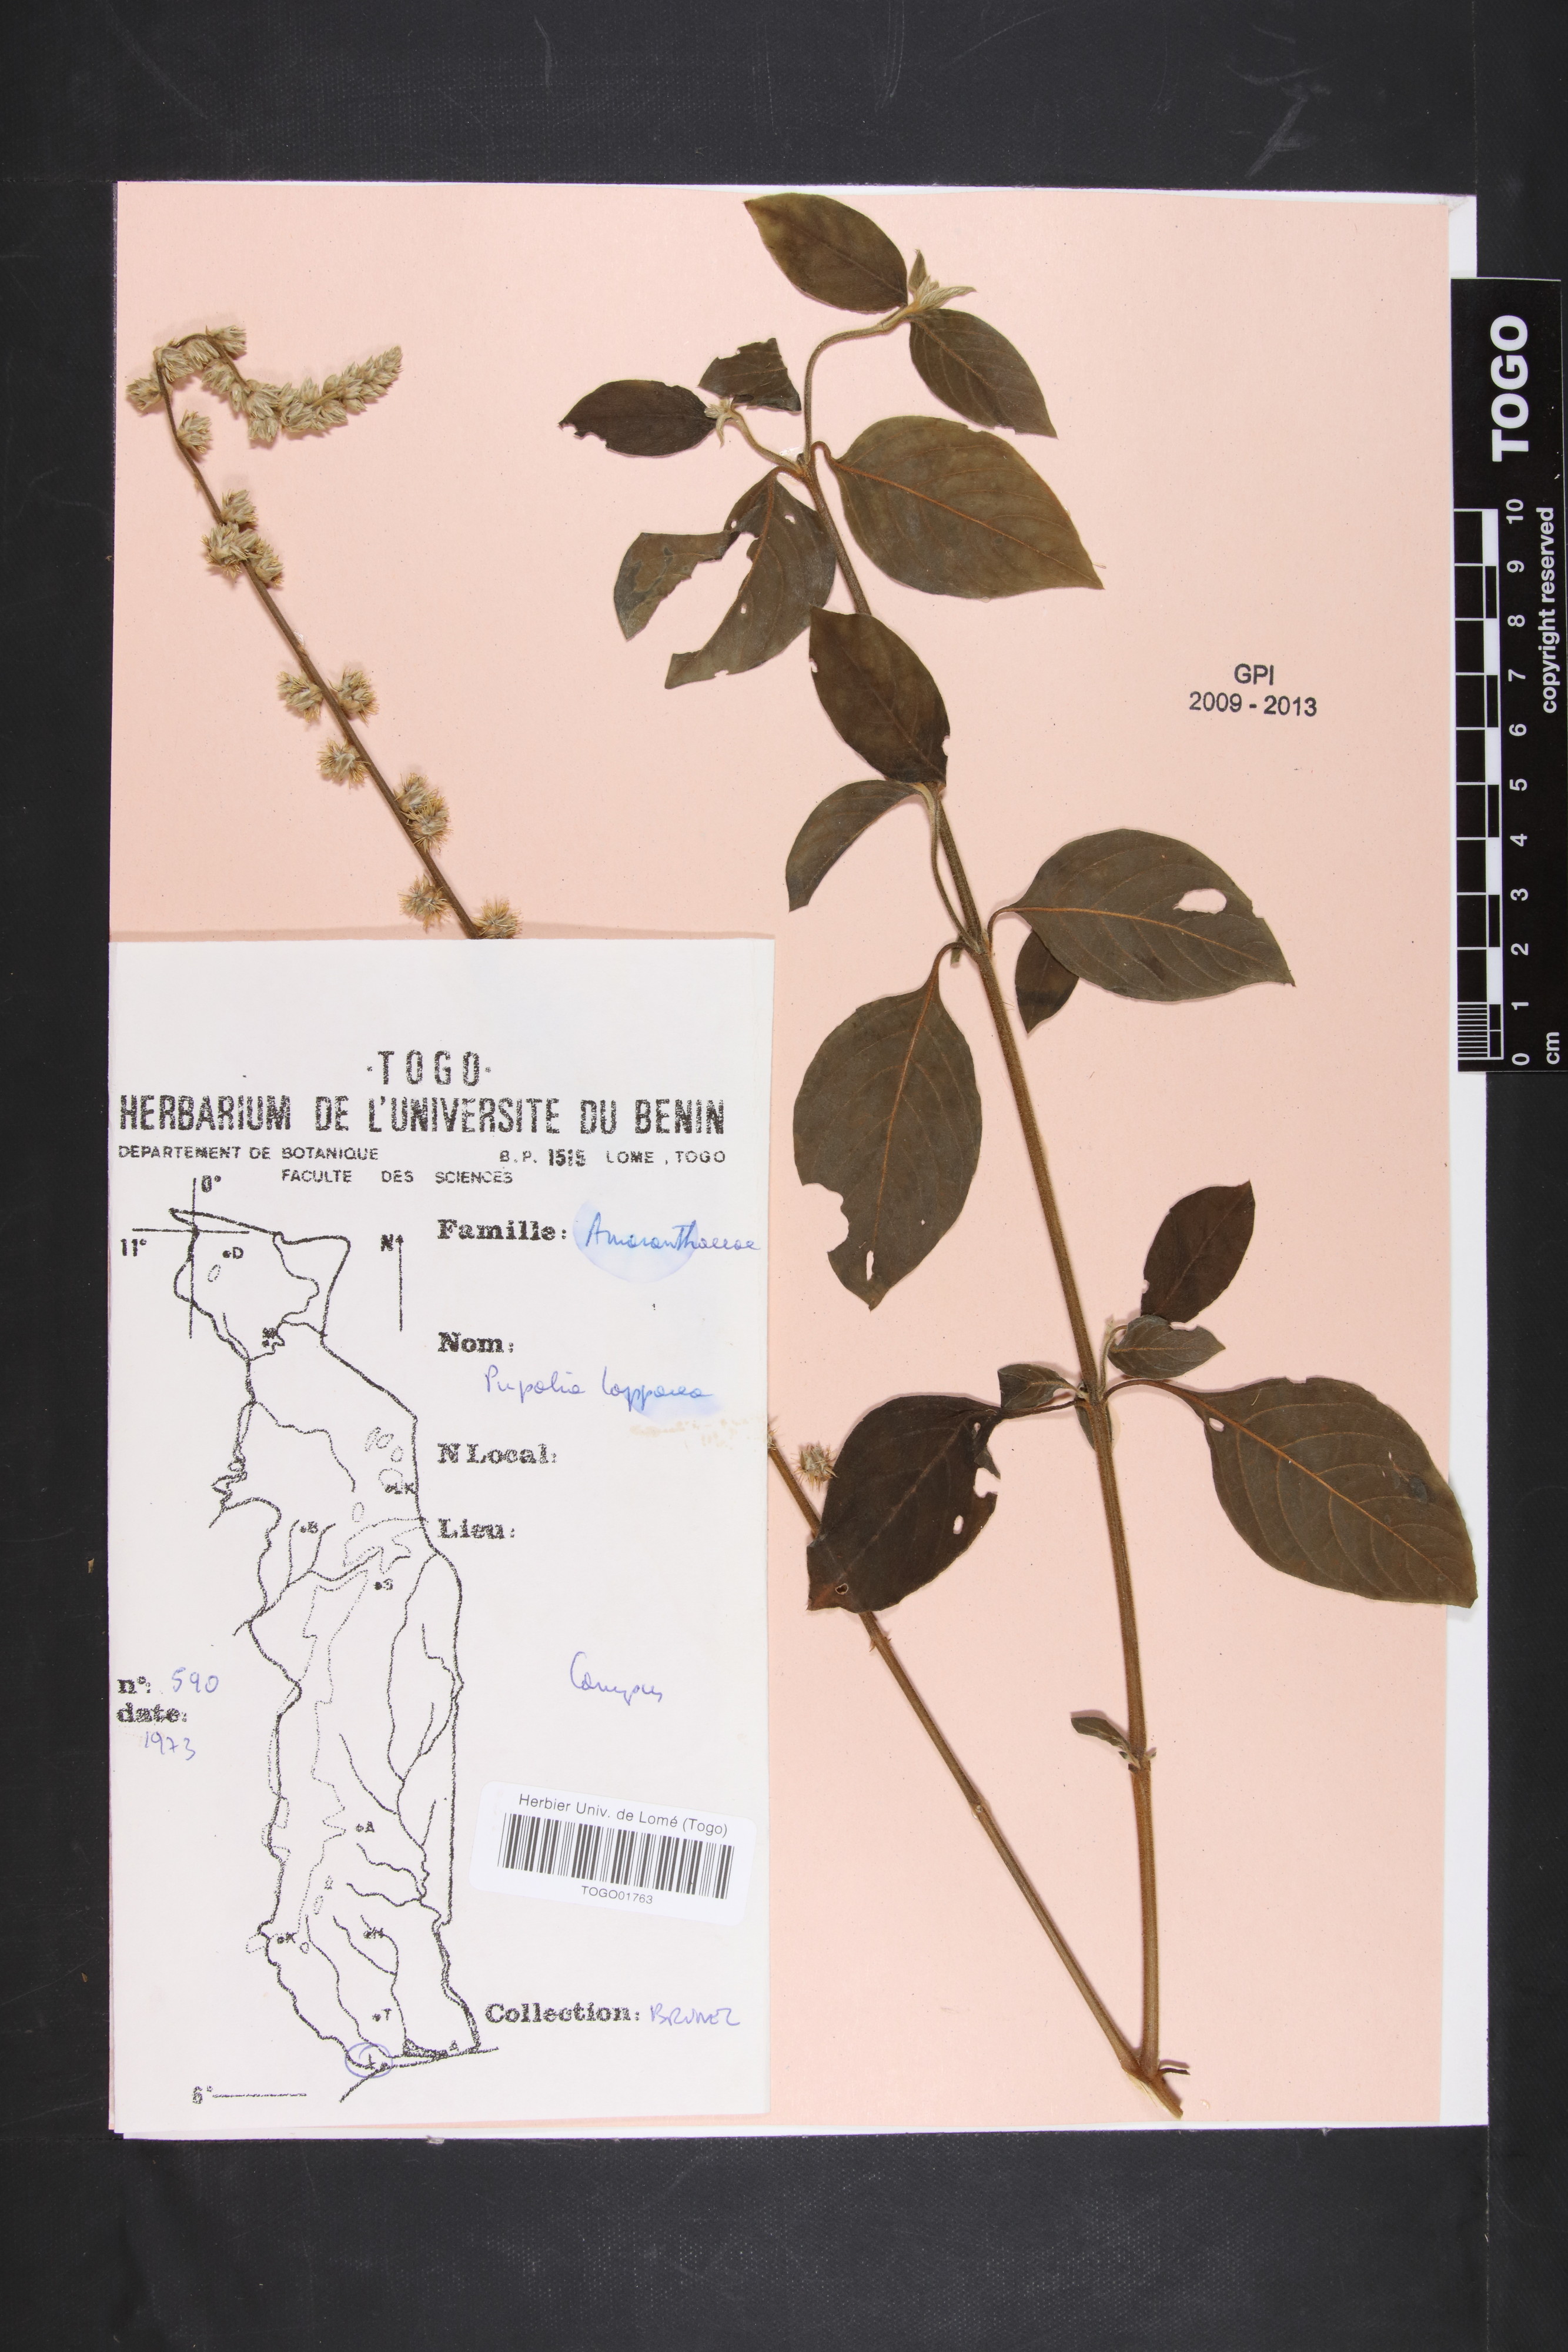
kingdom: Plantae
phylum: Tracheophyta
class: Magnoliopsida
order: Caryophyllales
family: Amaranthaceae
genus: Pupalia
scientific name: Pupalia lappacea
